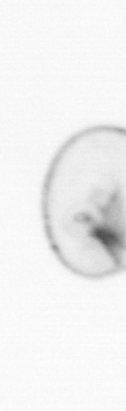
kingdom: Chromista
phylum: Myzozoa
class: Dinophyceae
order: Noctilucales
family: Noctilucaceae
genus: Noctiluca
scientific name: Noctiluca scintillans
